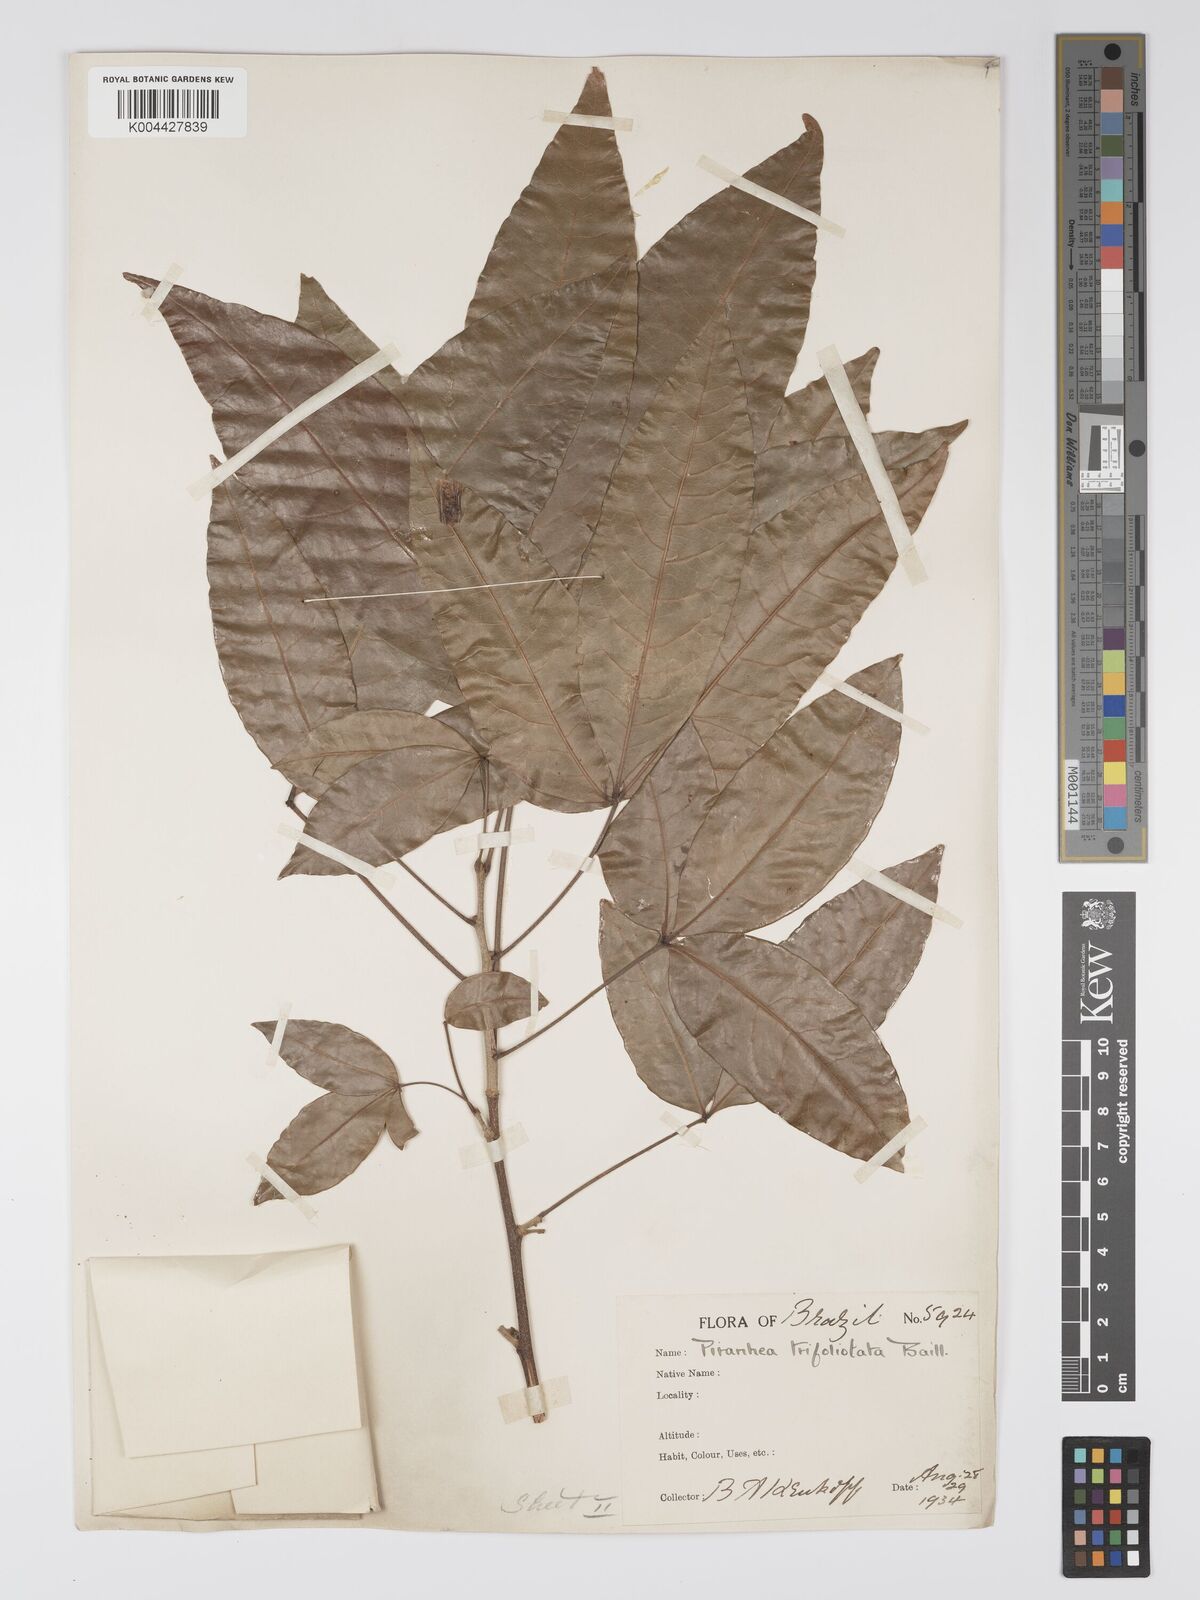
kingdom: Plantae
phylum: Tracheophyta
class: Magnoliopsida
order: Malpighiales
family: Picrodendraceae
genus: Piranhea
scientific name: Piranhea trifoliolata
